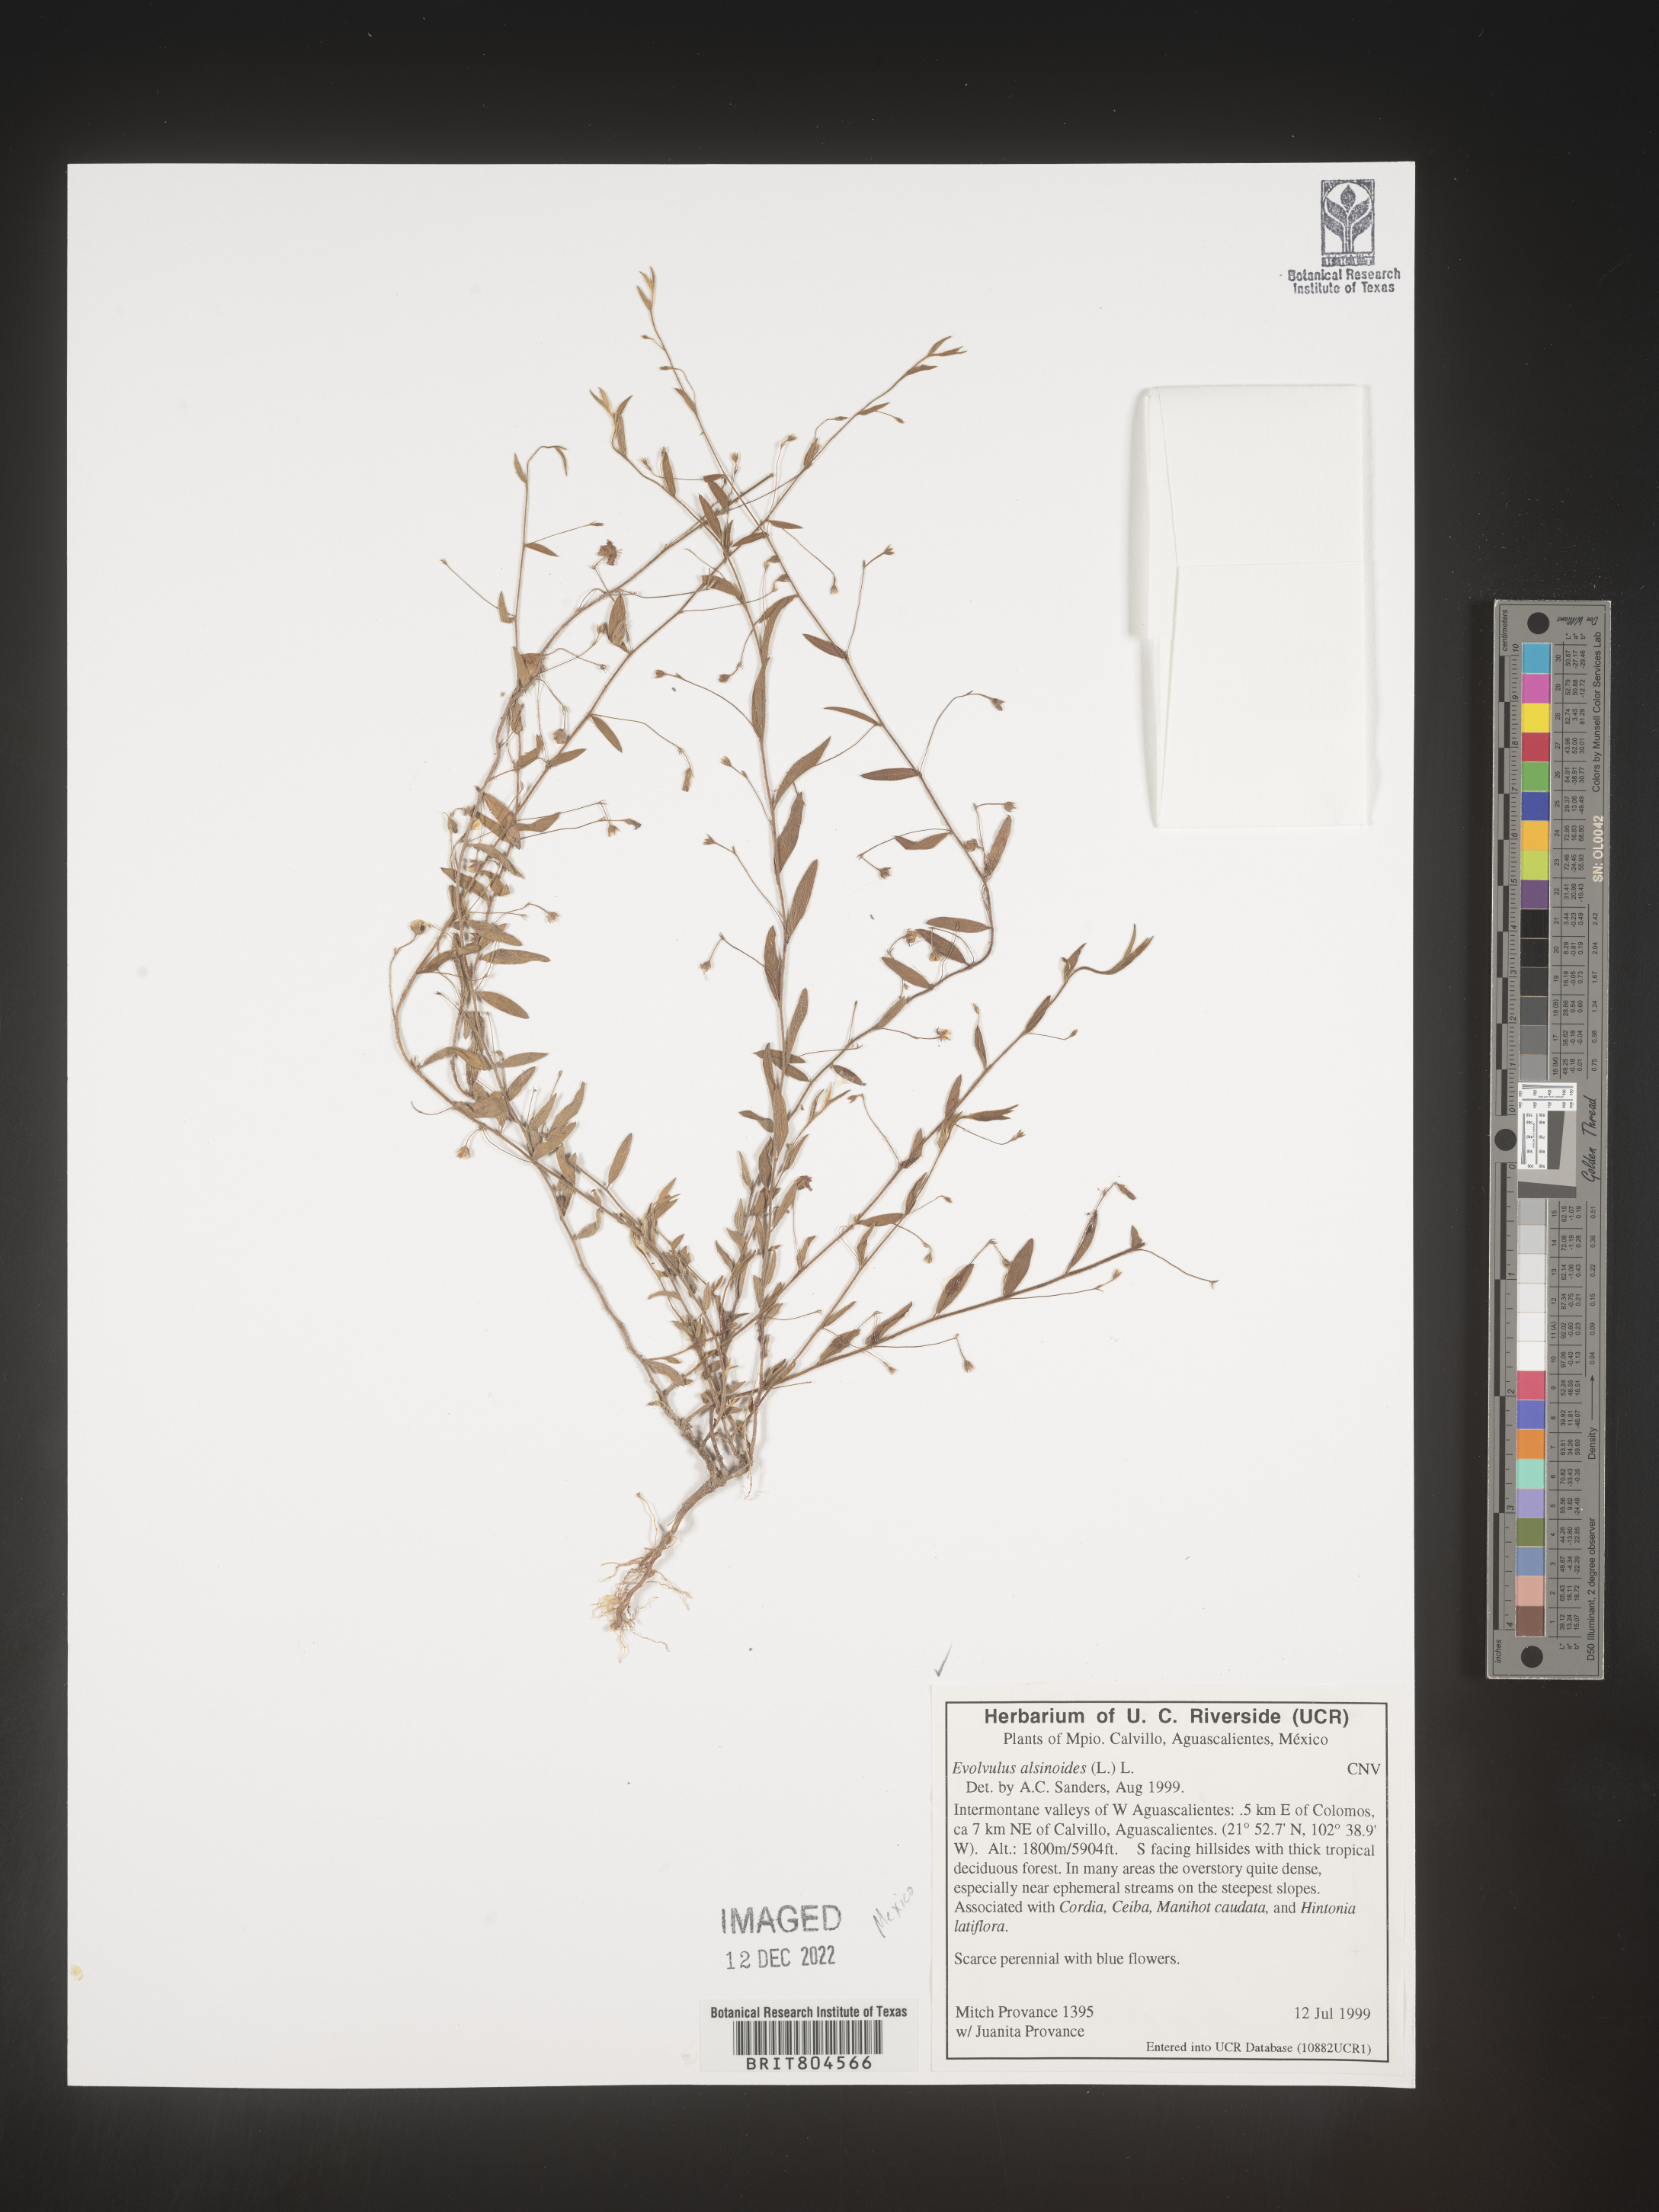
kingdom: Plantae
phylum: Tracheophyta
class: Magnoliopsida
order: Solanales
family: Convolvulaceae
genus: Evolvulus
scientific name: Evolvulus
